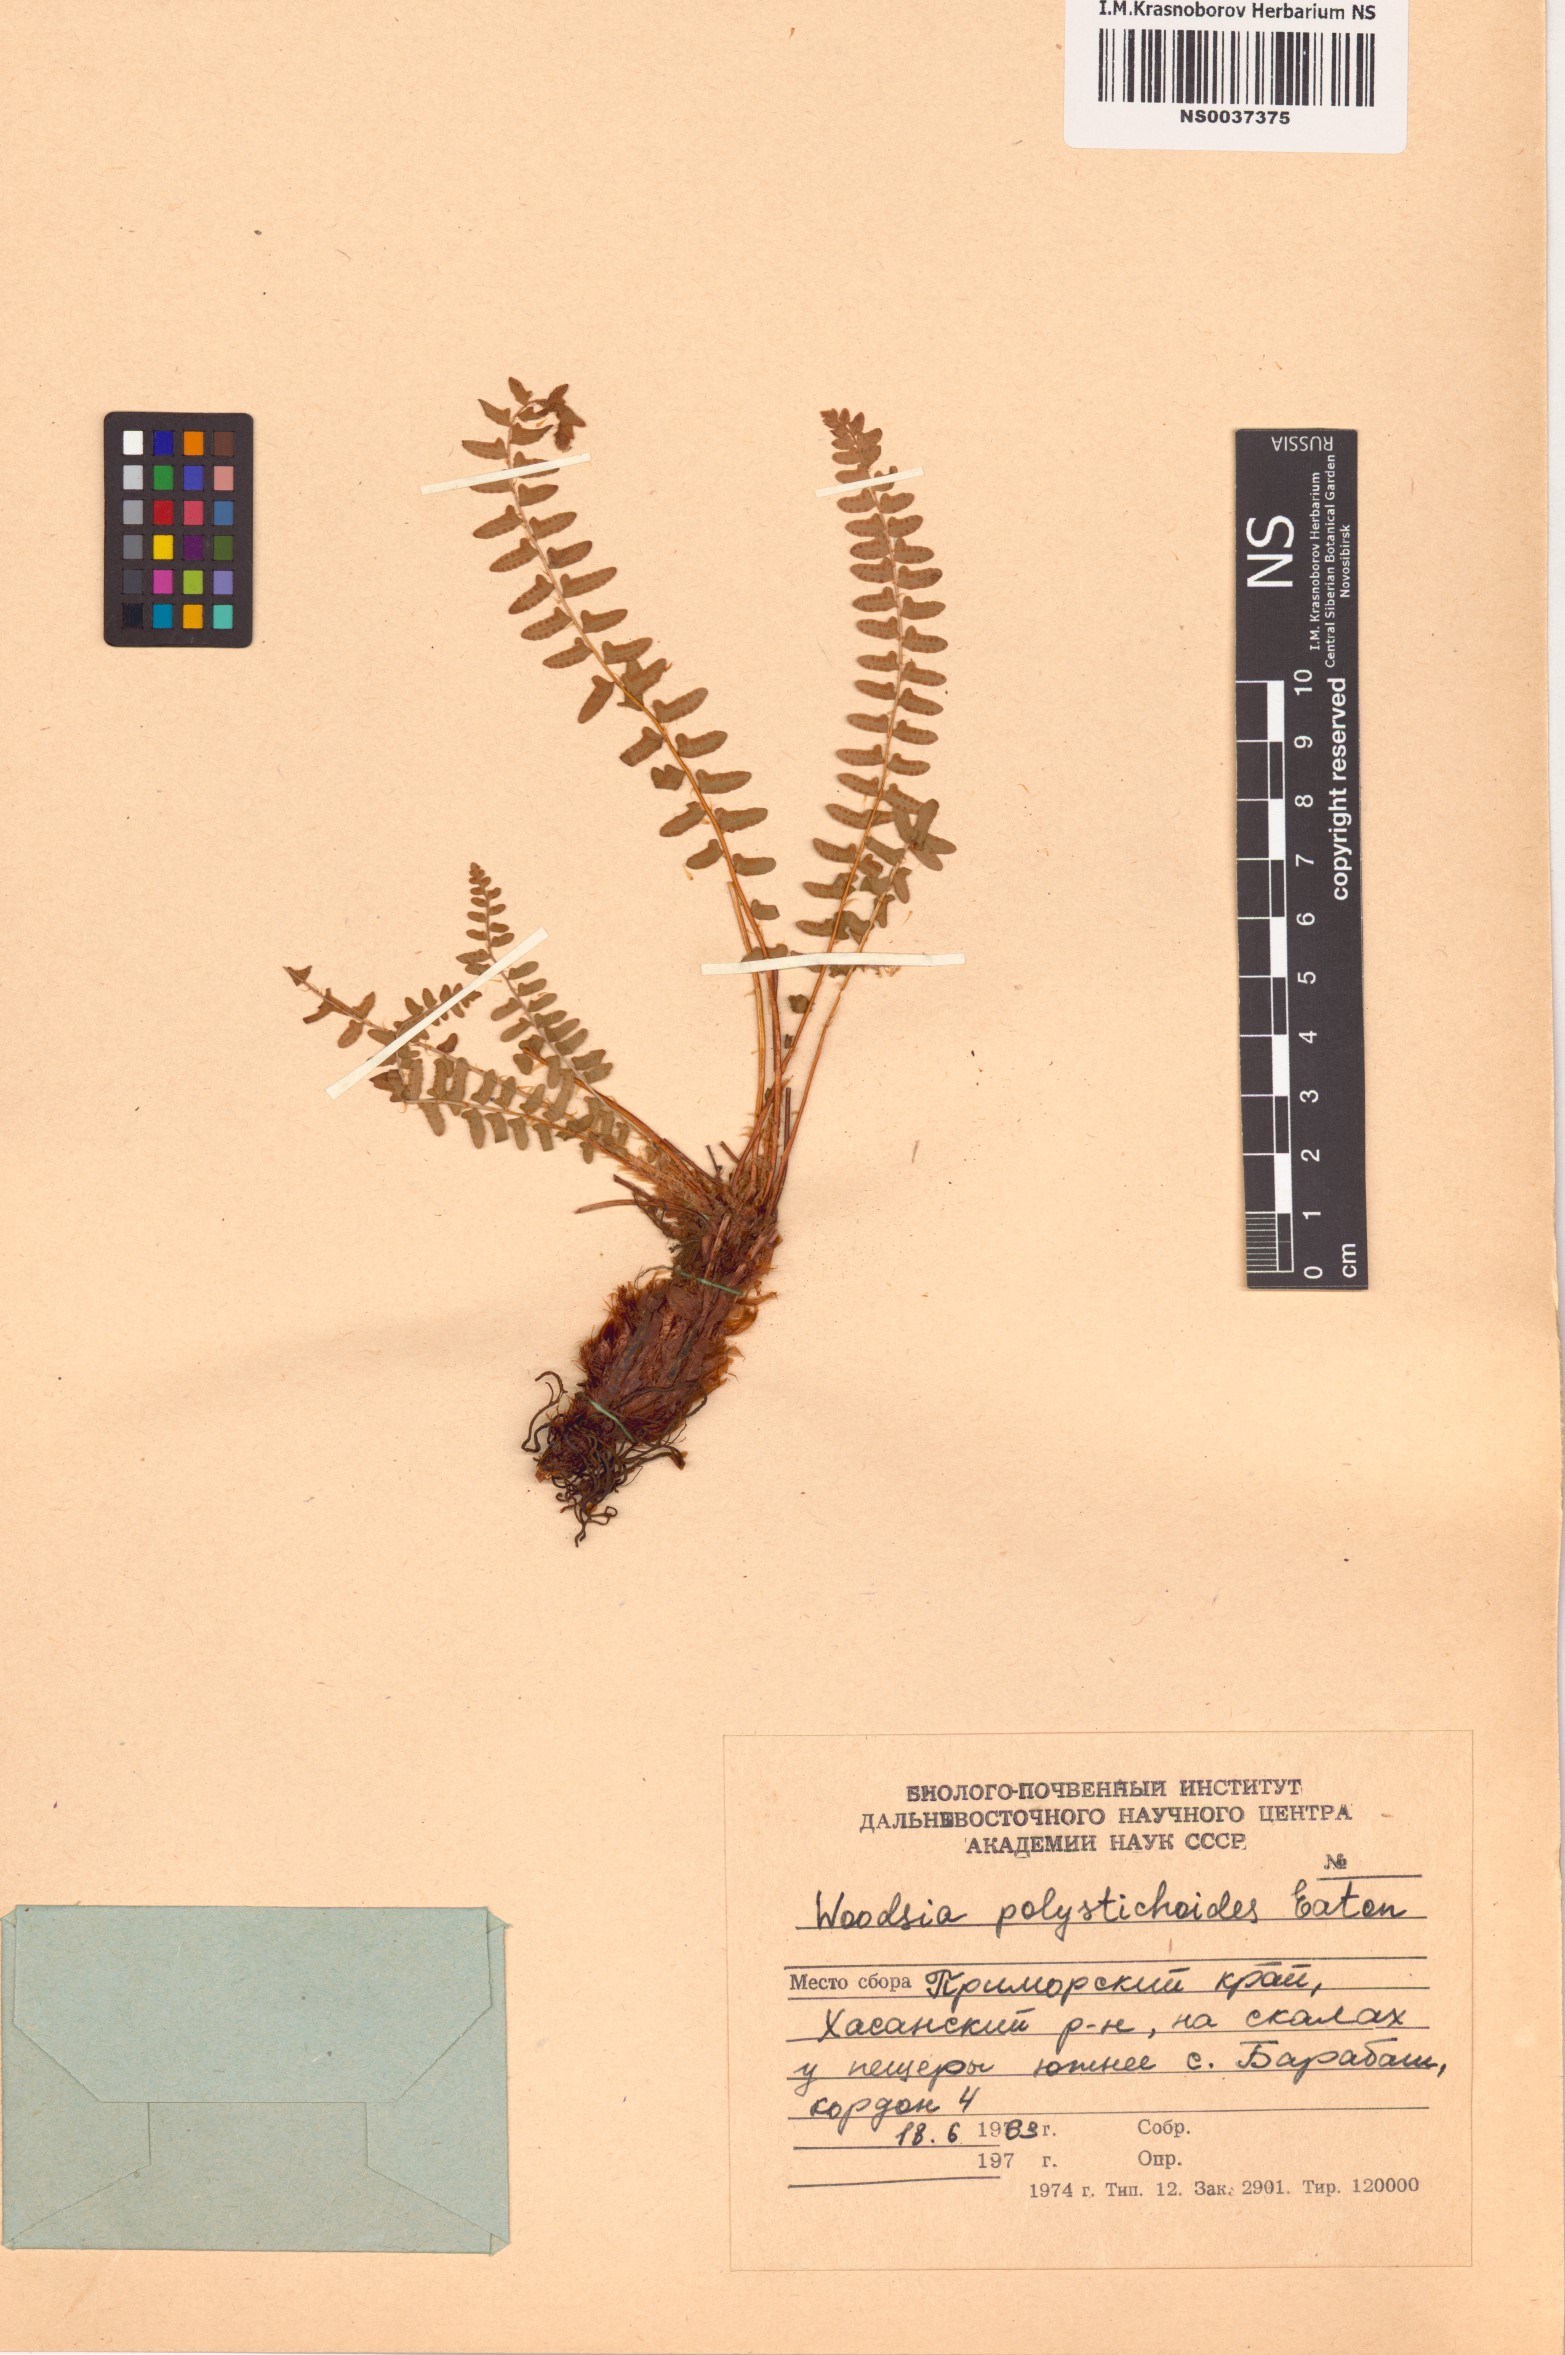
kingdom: Plantae
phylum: Tracheophyta
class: Polypodiopsida
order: Polypodiales
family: Woodsiaceae
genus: Woodsia
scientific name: Woodsia polystichoides
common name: Holly fern woodsia
